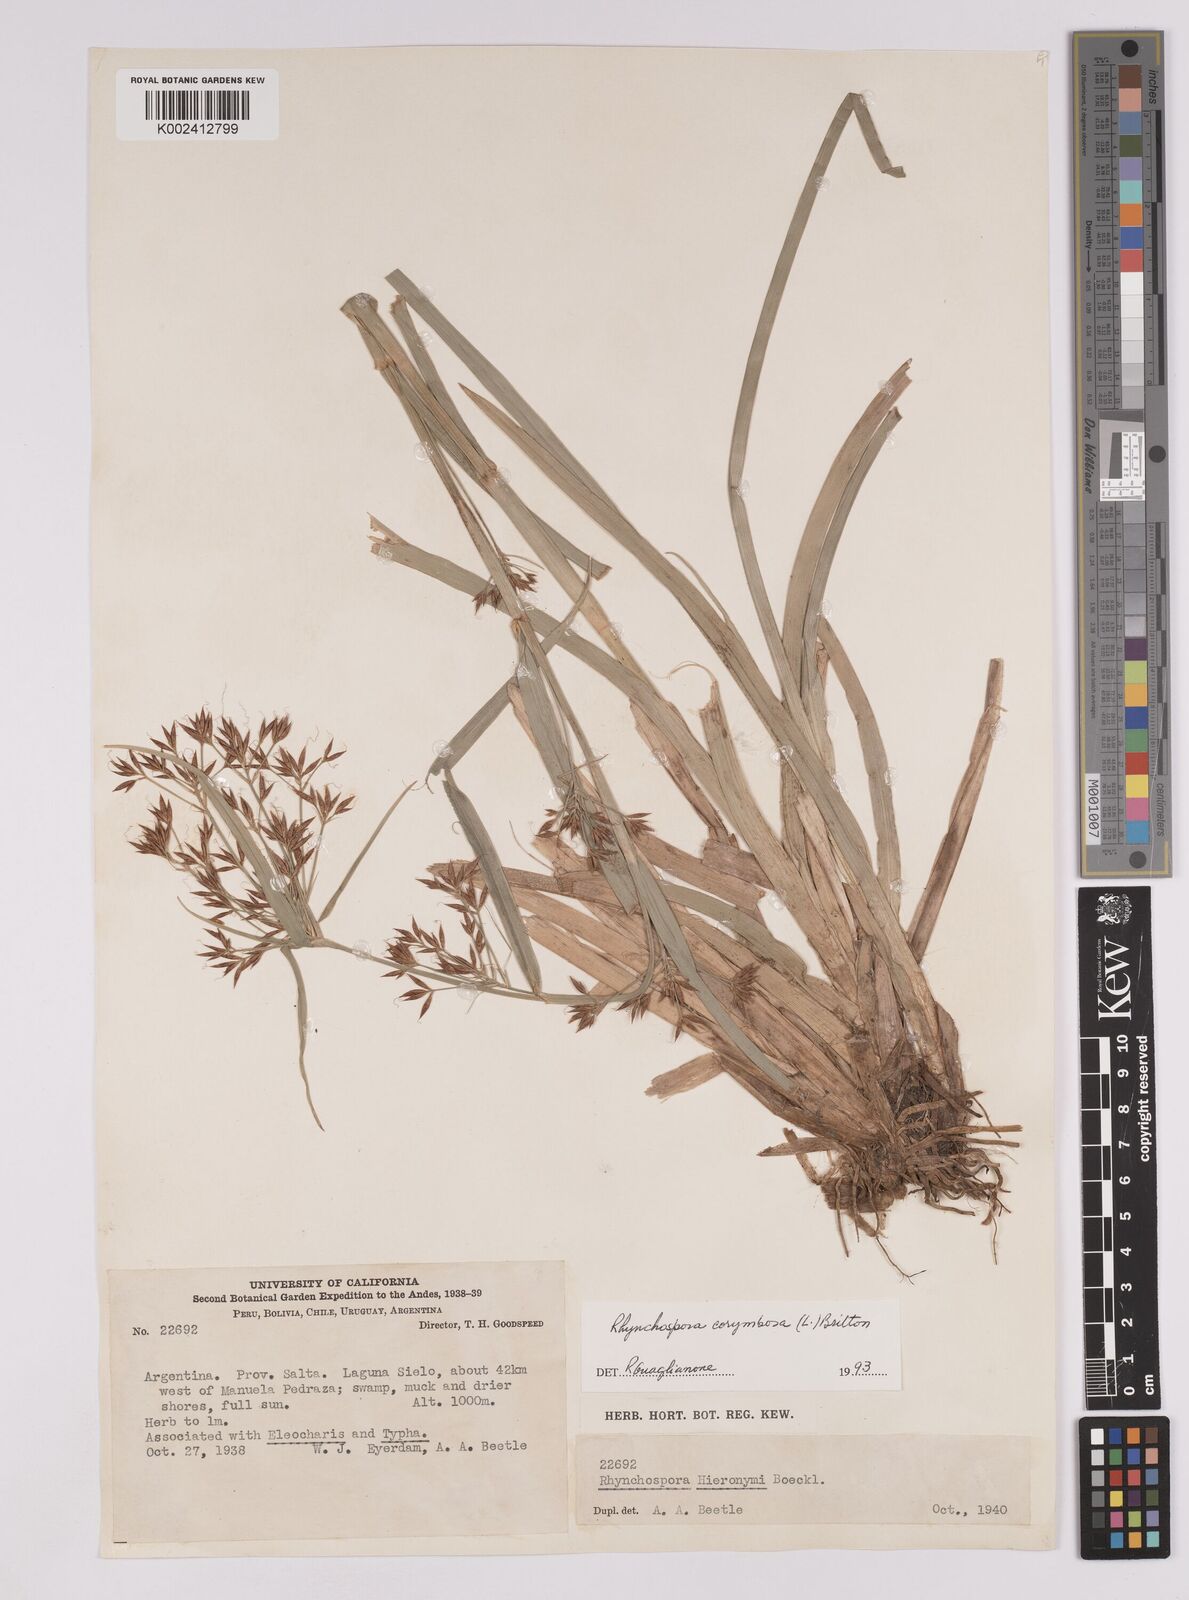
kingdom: Plantae
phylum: Tracheophyta
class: Liliopsida
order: Poales
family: Cyperaceae
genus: Rhynchospora
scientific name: Rhynchospora corymbosa
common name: Golden beak sedge
